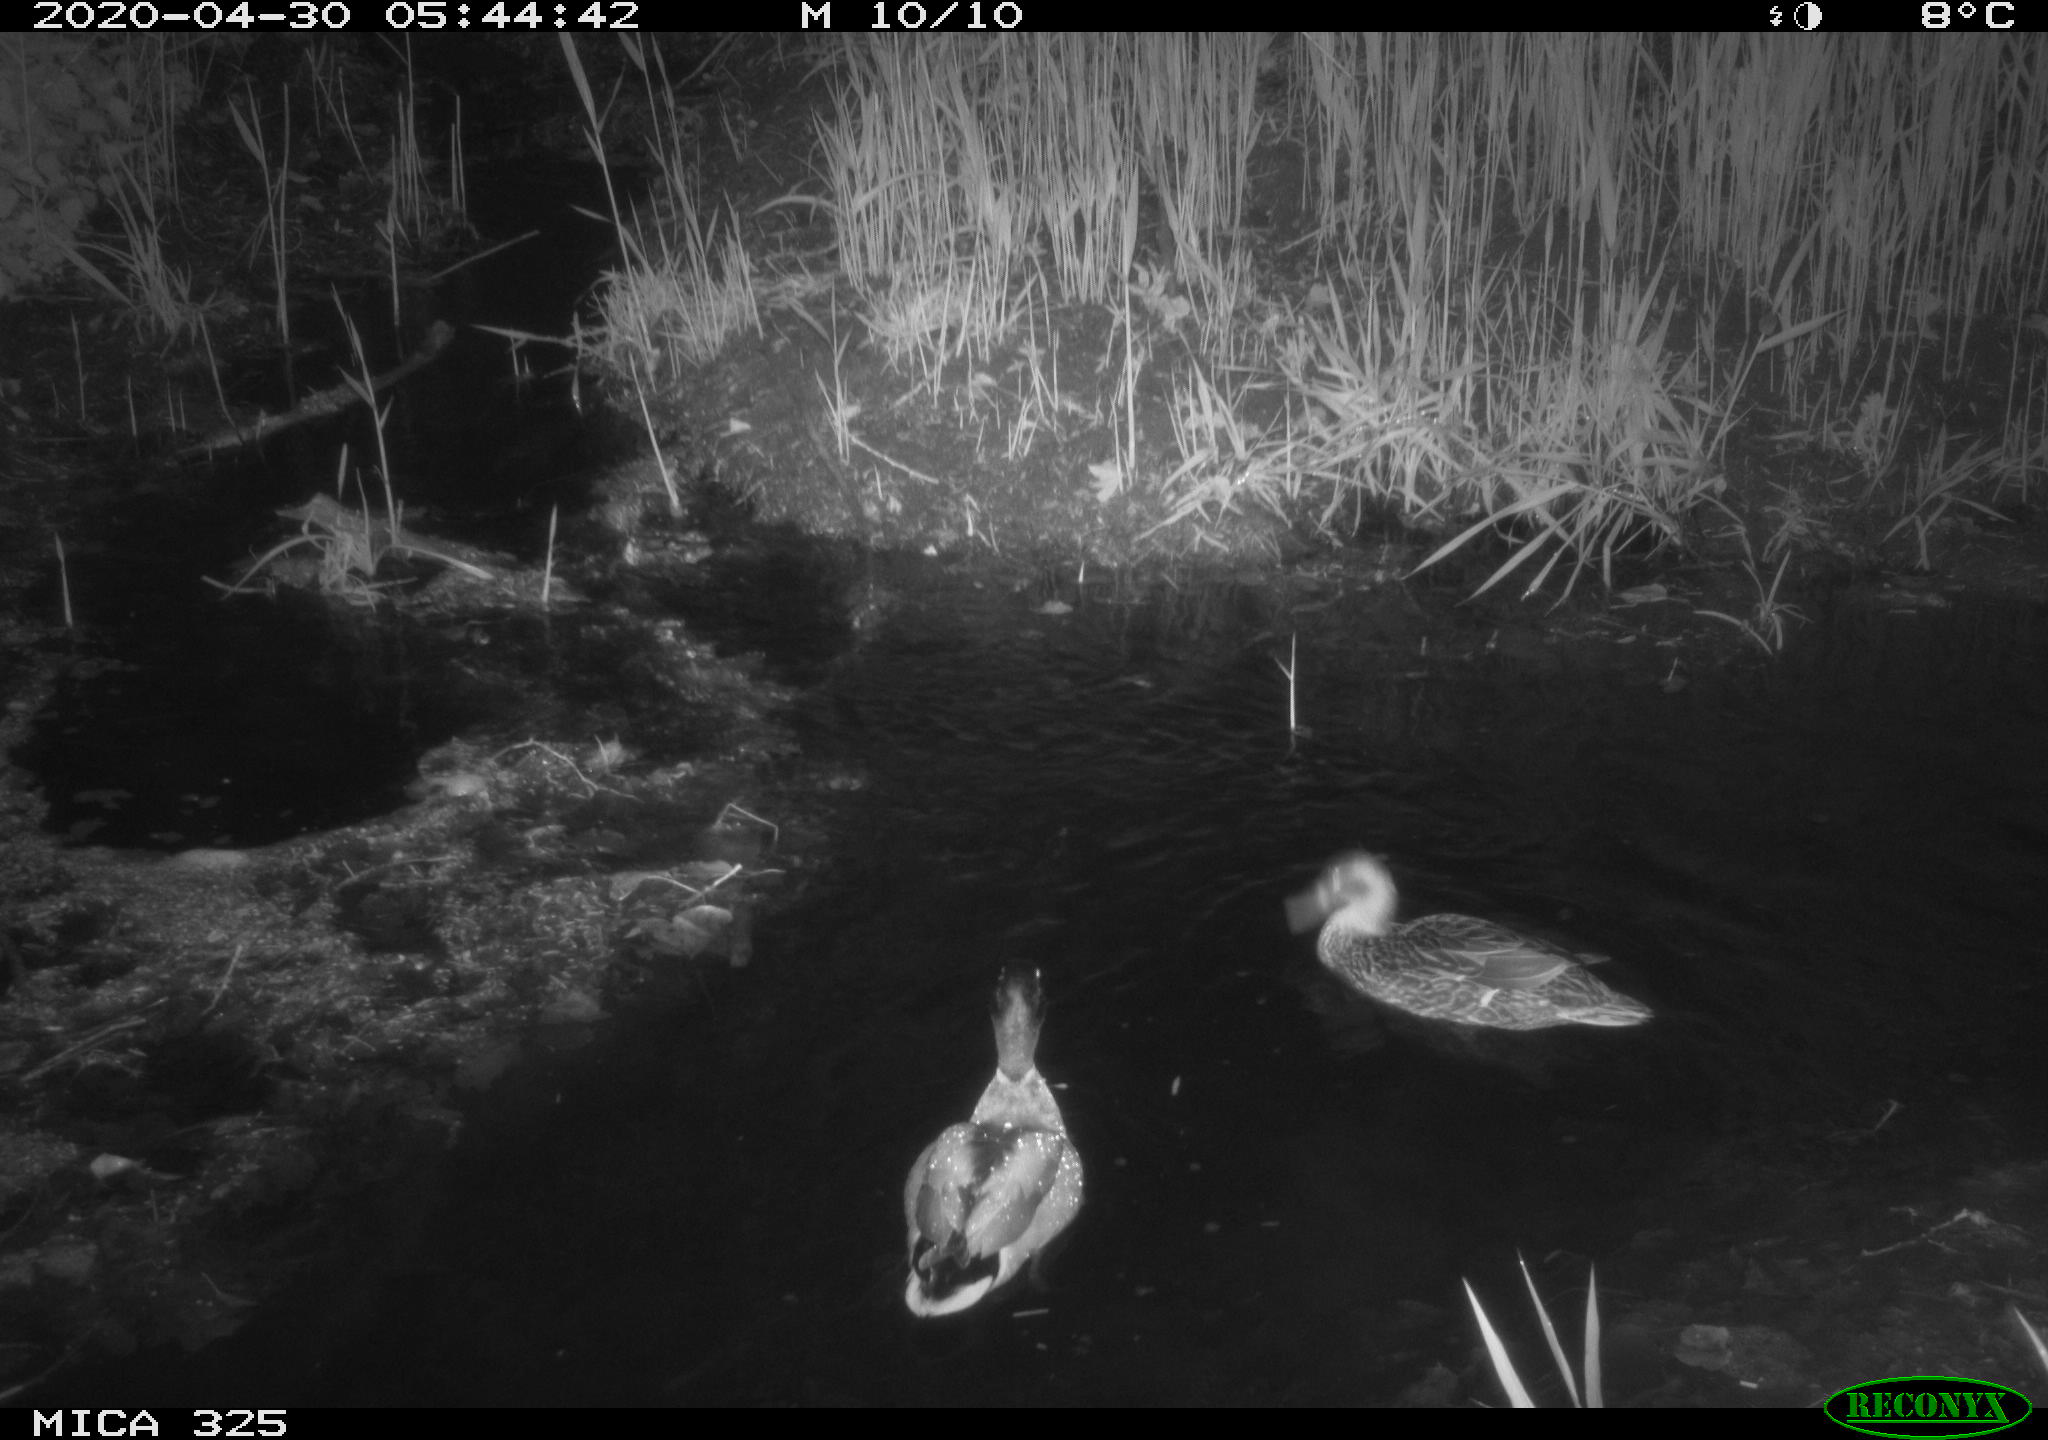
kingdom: Animalia
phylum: Chordata
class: Aves
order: Anseriformes
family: Anatidae
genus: Anas
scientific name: Anas platyrhynchos
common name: Mallard
